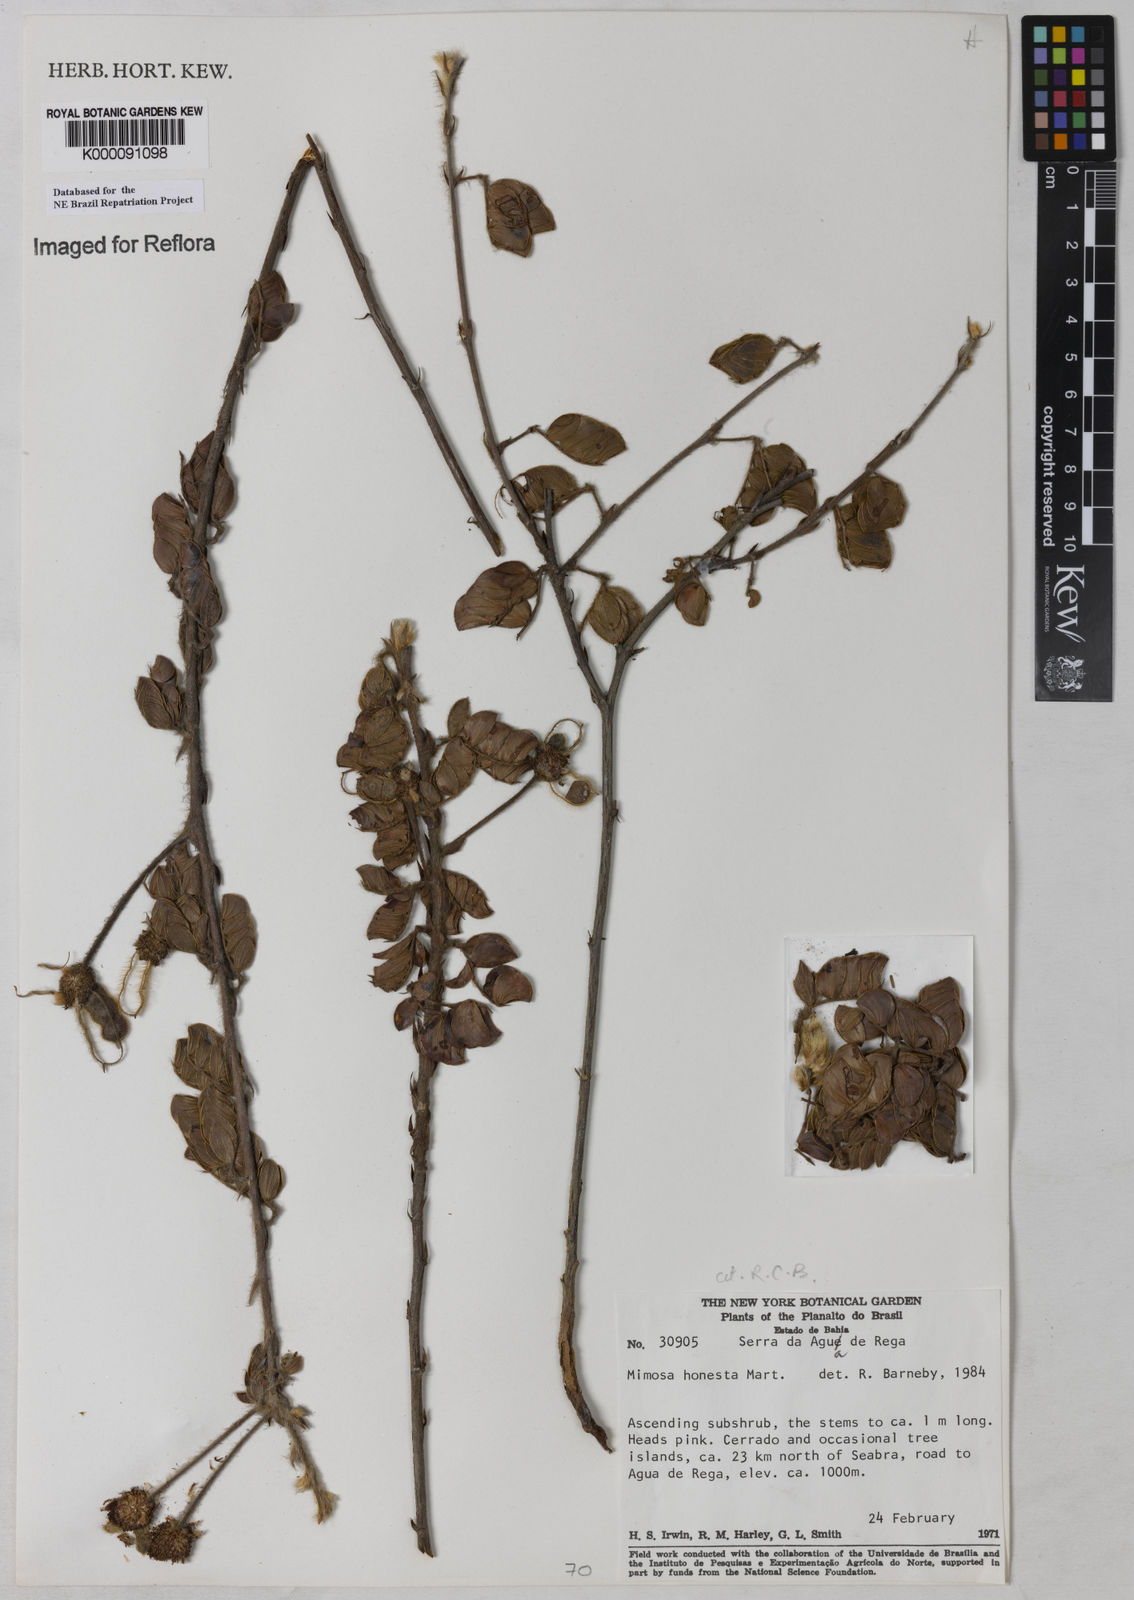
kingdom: Plantae
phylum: Tracheophyta
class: Magnoliopsida
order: Fabales
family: Fabaceae
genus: Mimosa
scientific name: Mimosa honesta
